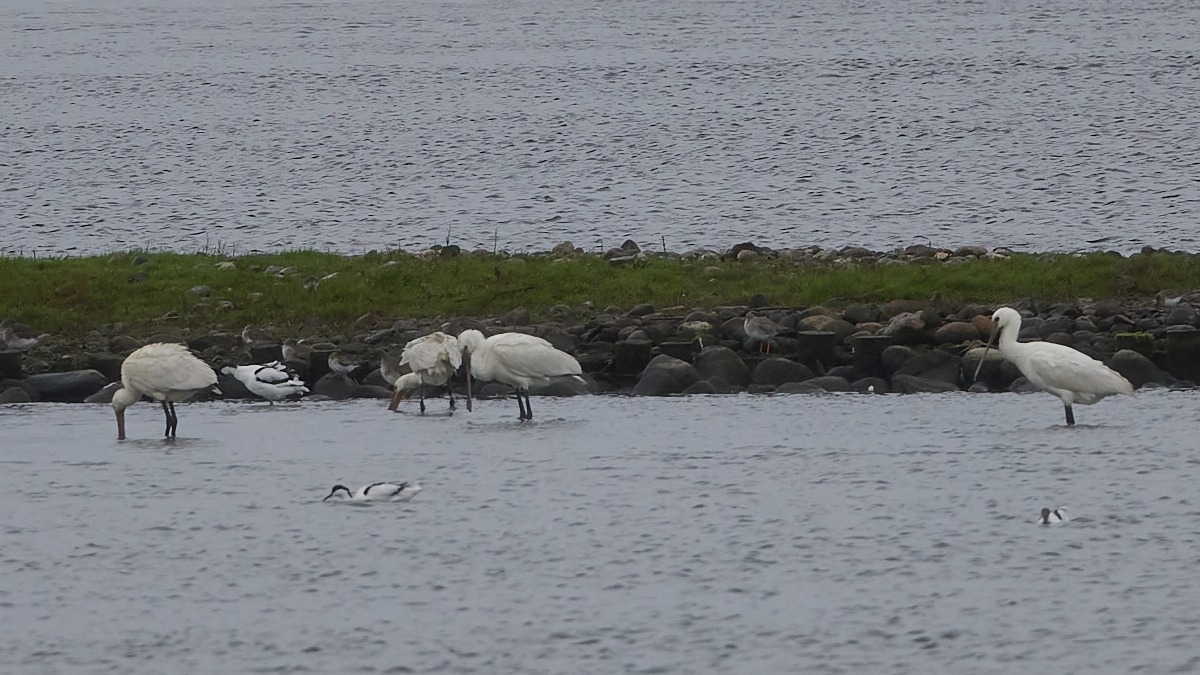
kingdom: Animalia
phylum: Chordata
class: Aves
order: Pelecaniformes
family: Threskiornithidae
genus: Platalea
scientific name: Platalea leucorodia
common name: Skestork
